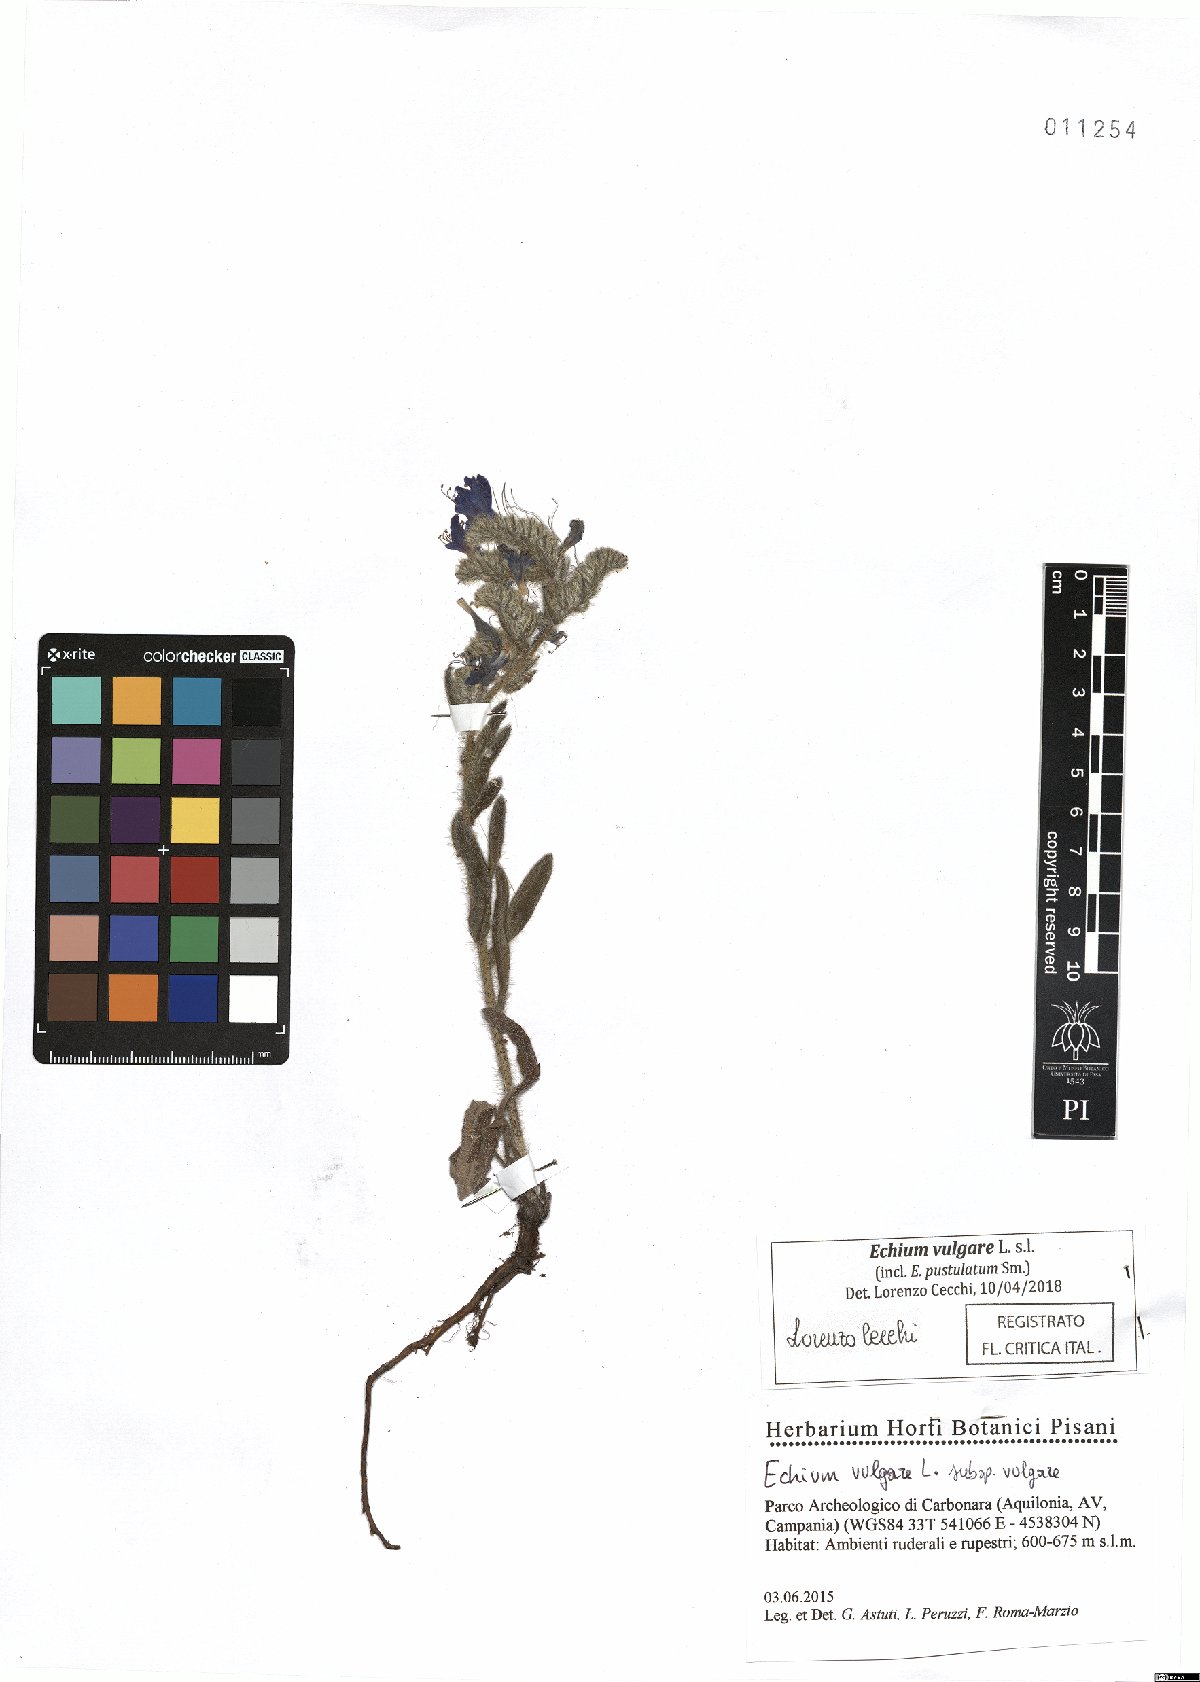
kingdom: Plantae
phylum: Tracheophyta
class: Magnoliopsida
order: Boraginales
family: Boraginaceae
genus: Echium
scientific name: Echium vulgare
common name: Common viper's bugloss
